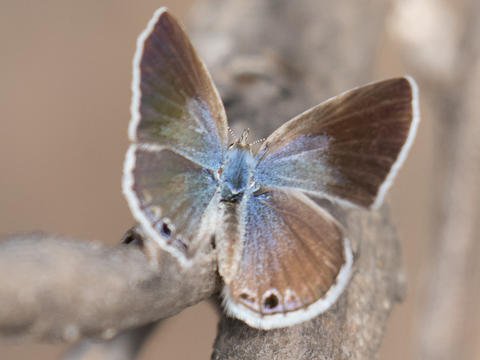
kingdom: Animalia
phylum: Arthropoda
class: Insecta
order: Lepidoptera
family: Lycaenidae
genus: Echinargus
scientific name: Echinargus isola
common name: Reakirt's Blue
